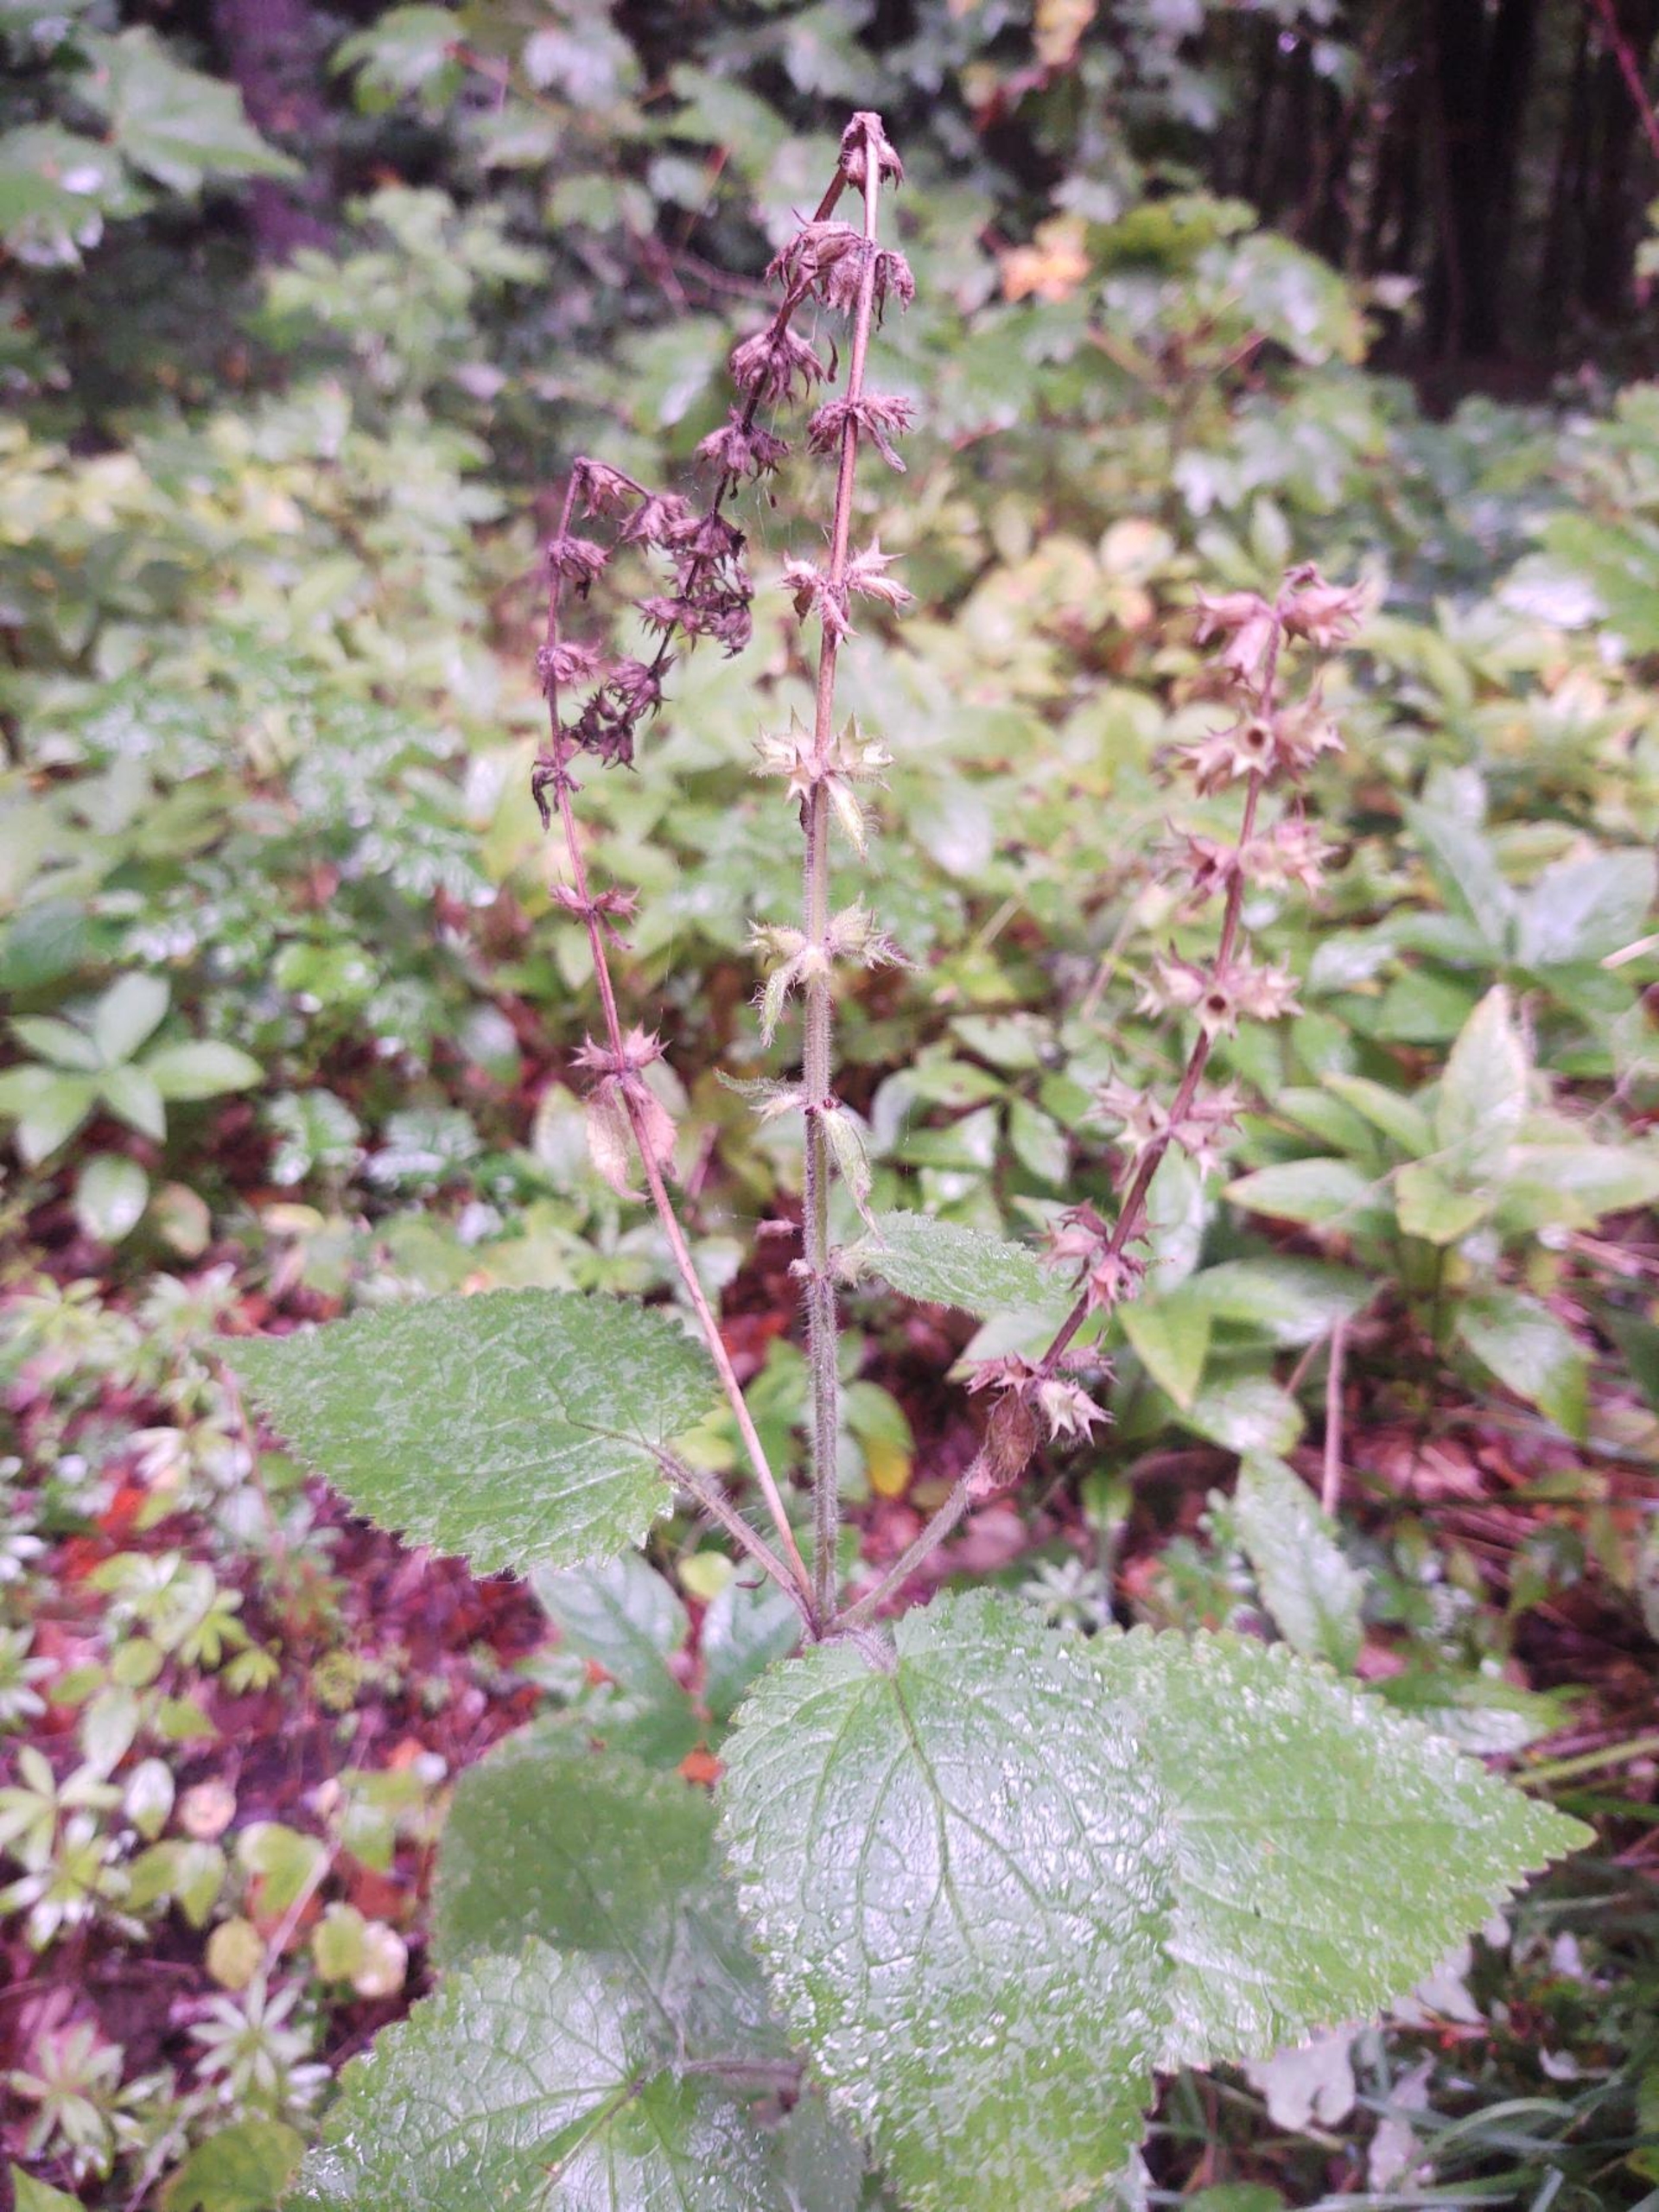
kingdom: Plantae
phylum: Tracheophyta
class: Magnoliopsida
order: Lamiales
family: Lamiaceae
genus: Stachys
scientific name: Stachys sylvatica
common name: Skov-galtetand
